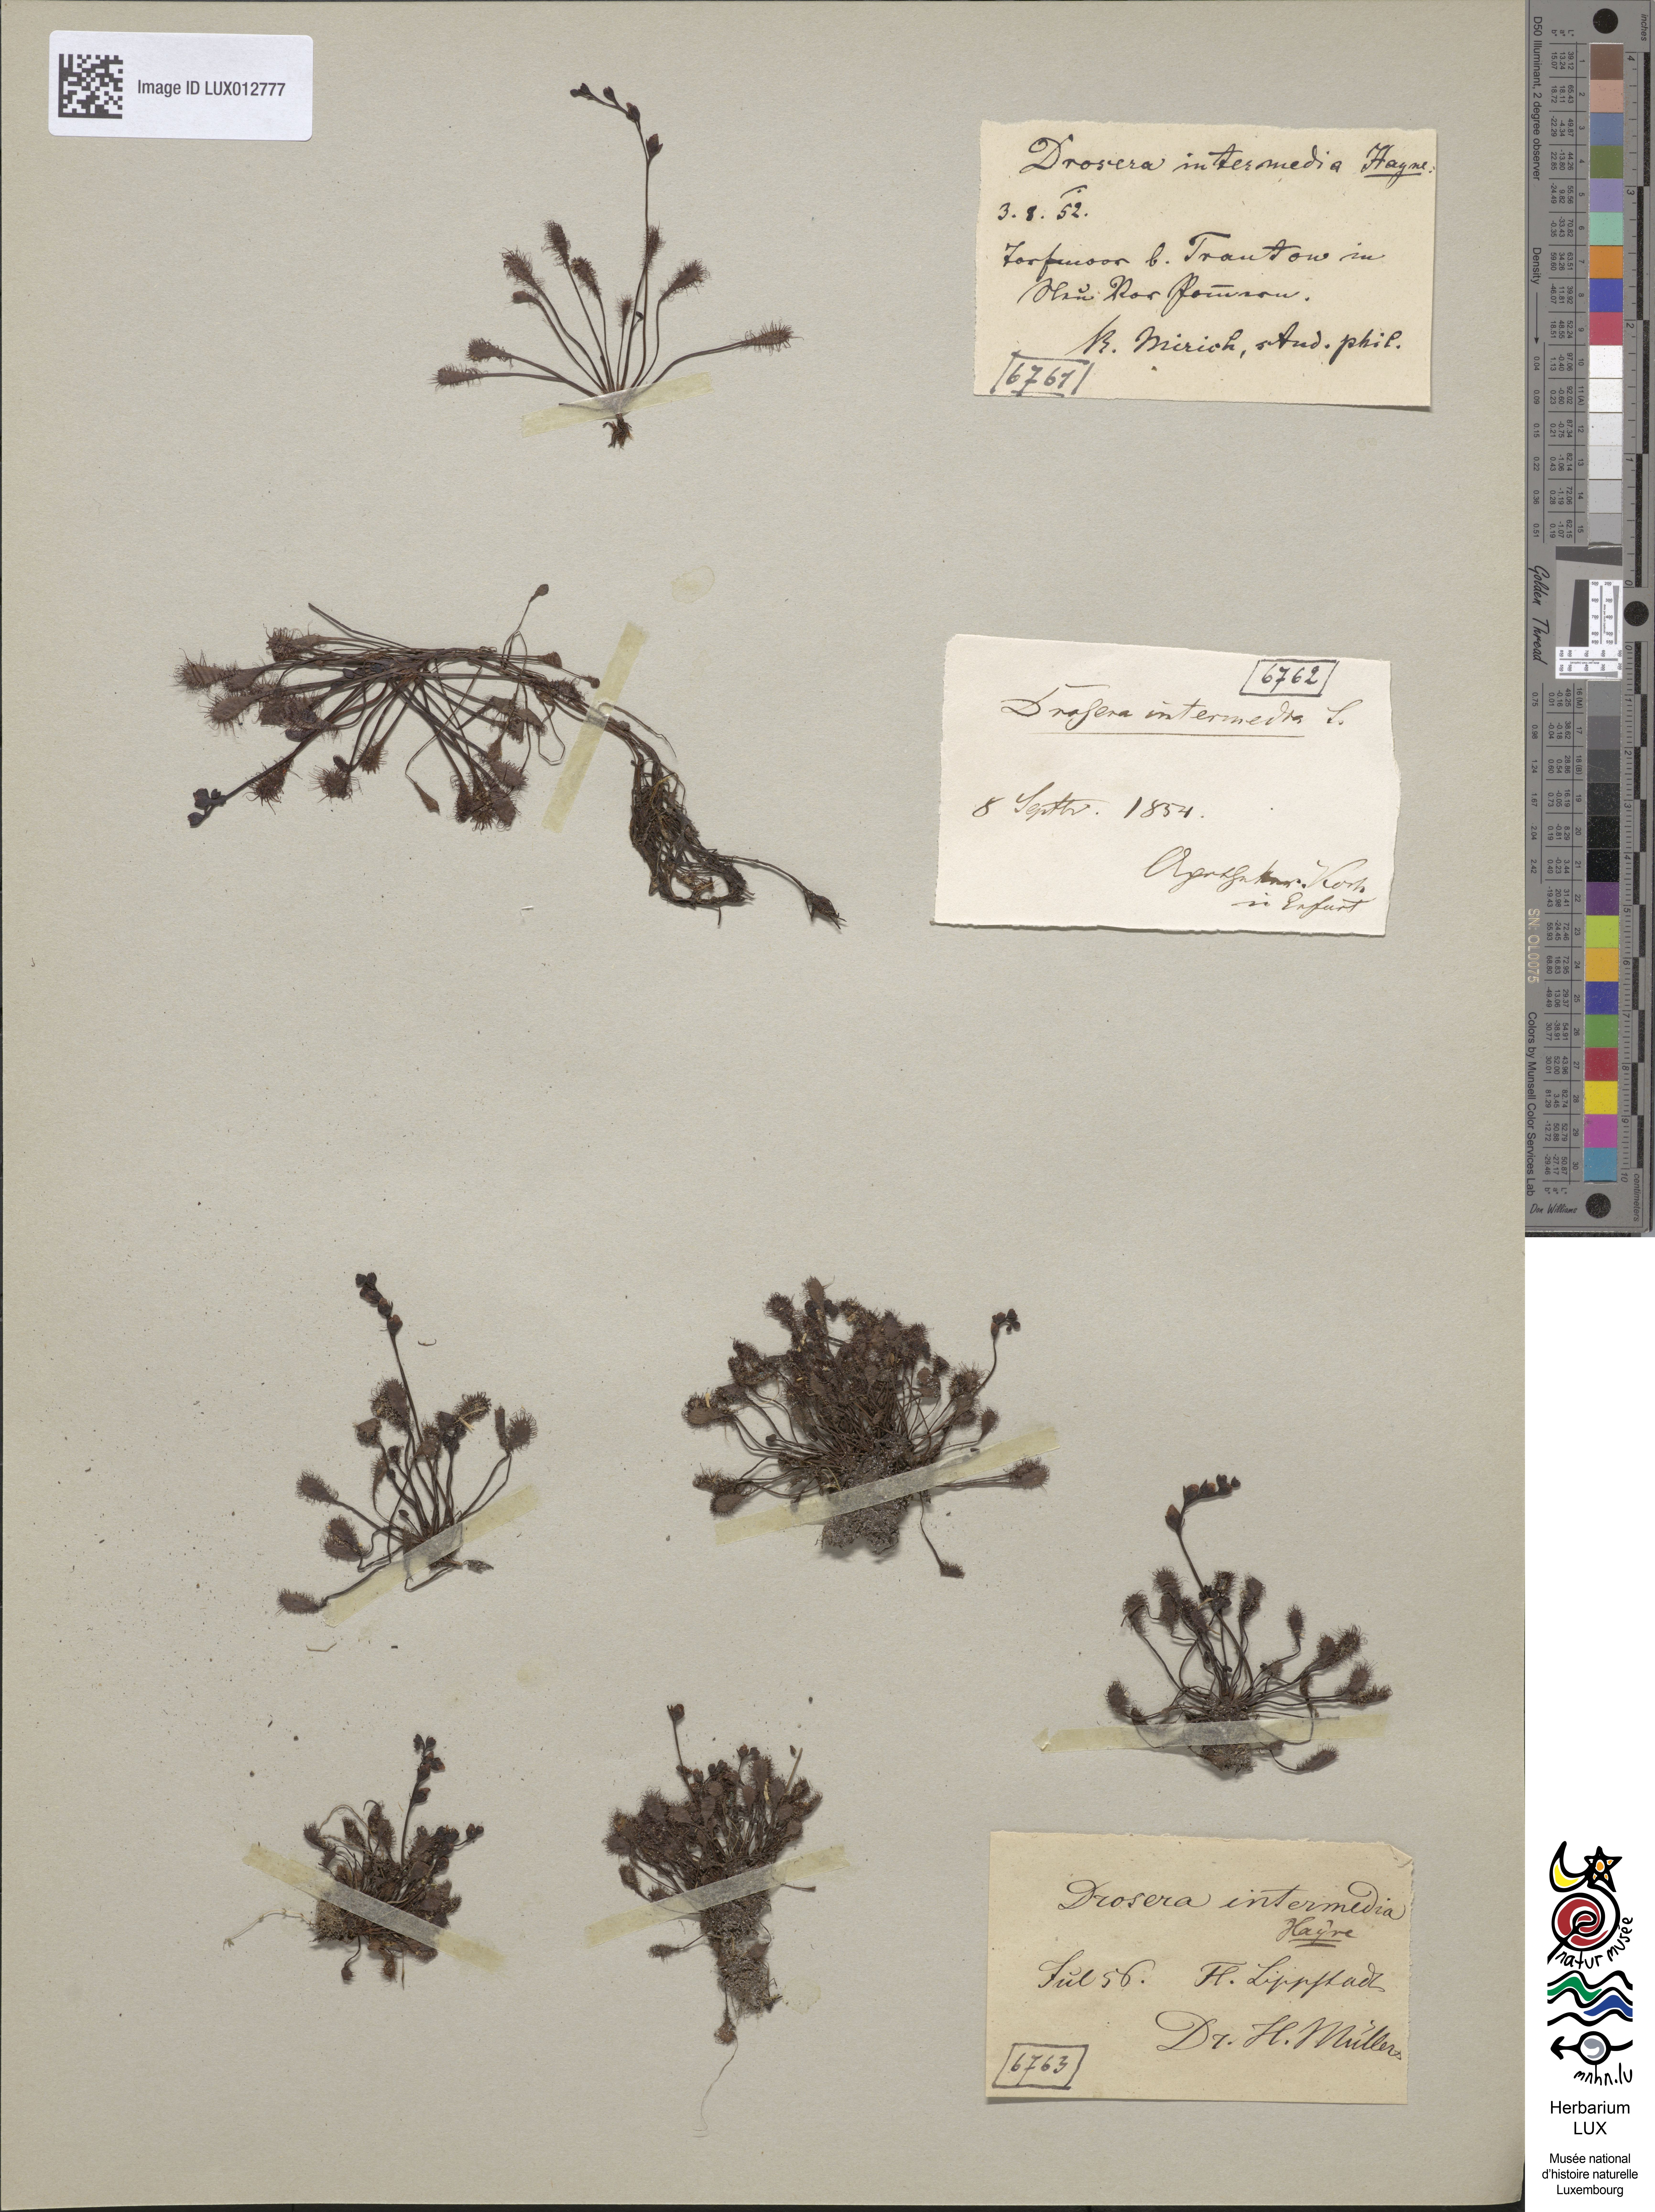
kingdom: Plantae
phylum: Tracheophyta
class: Magnoliopsida
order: Caryophyllales
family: Droseraceae
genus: Drosera
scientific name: Drosera intermedia
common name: Oblong-leaved sundew
